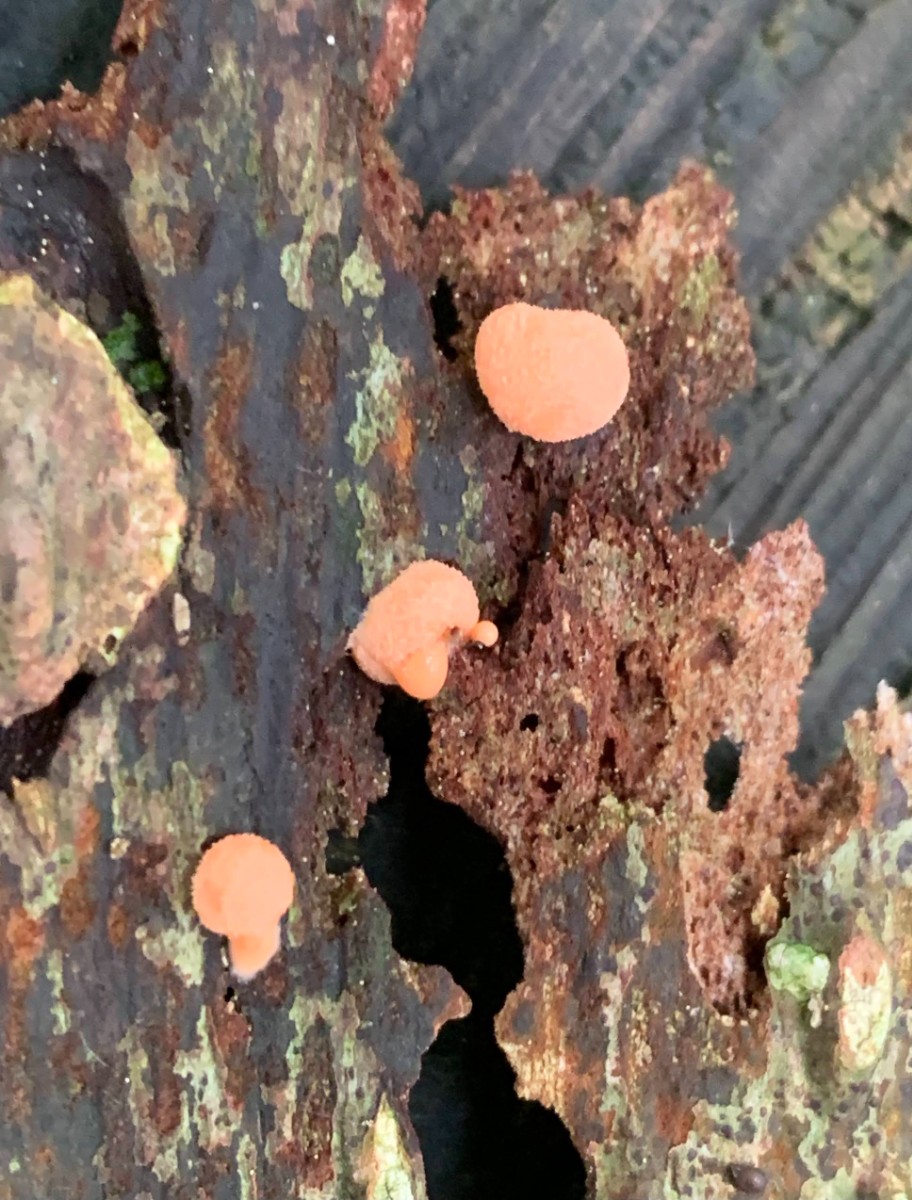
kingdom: Protozoa
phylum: Mycetozoa
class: Myxomycetes
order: Cribrariales
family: Tubiferaceae
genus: Lycogala
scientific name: Lycogala epidendrum
